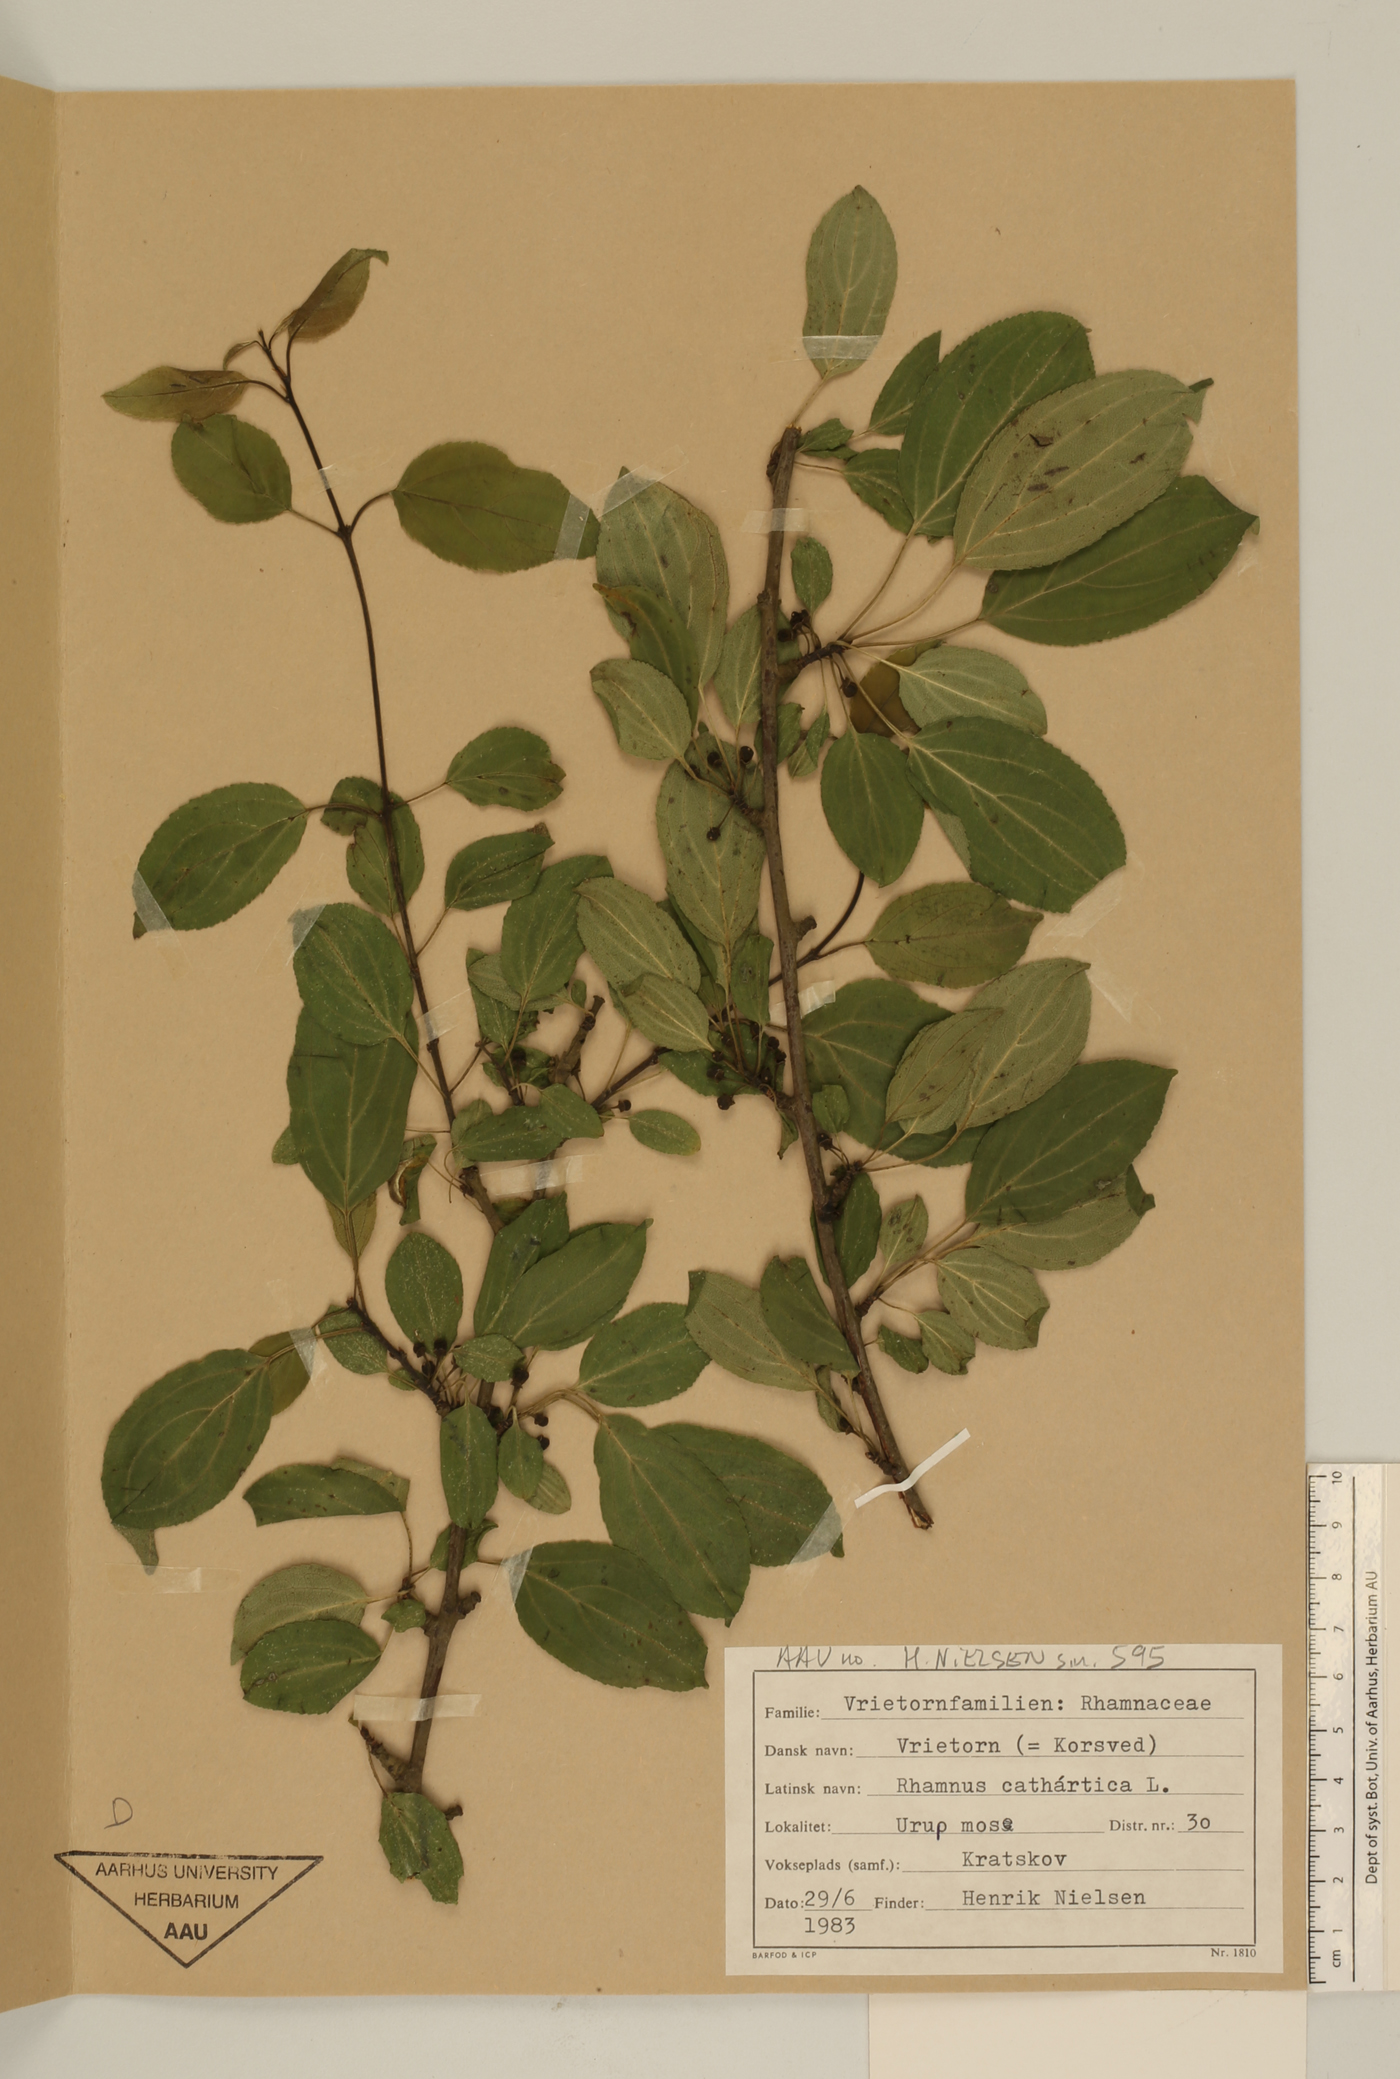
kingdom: Plantae
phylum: Tracheophyta
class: Magnoliopsida
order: Rosales
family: Rhamnaceae
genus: Rhamnus
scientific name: Rhamnus cathartica
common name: Common buckthorn
